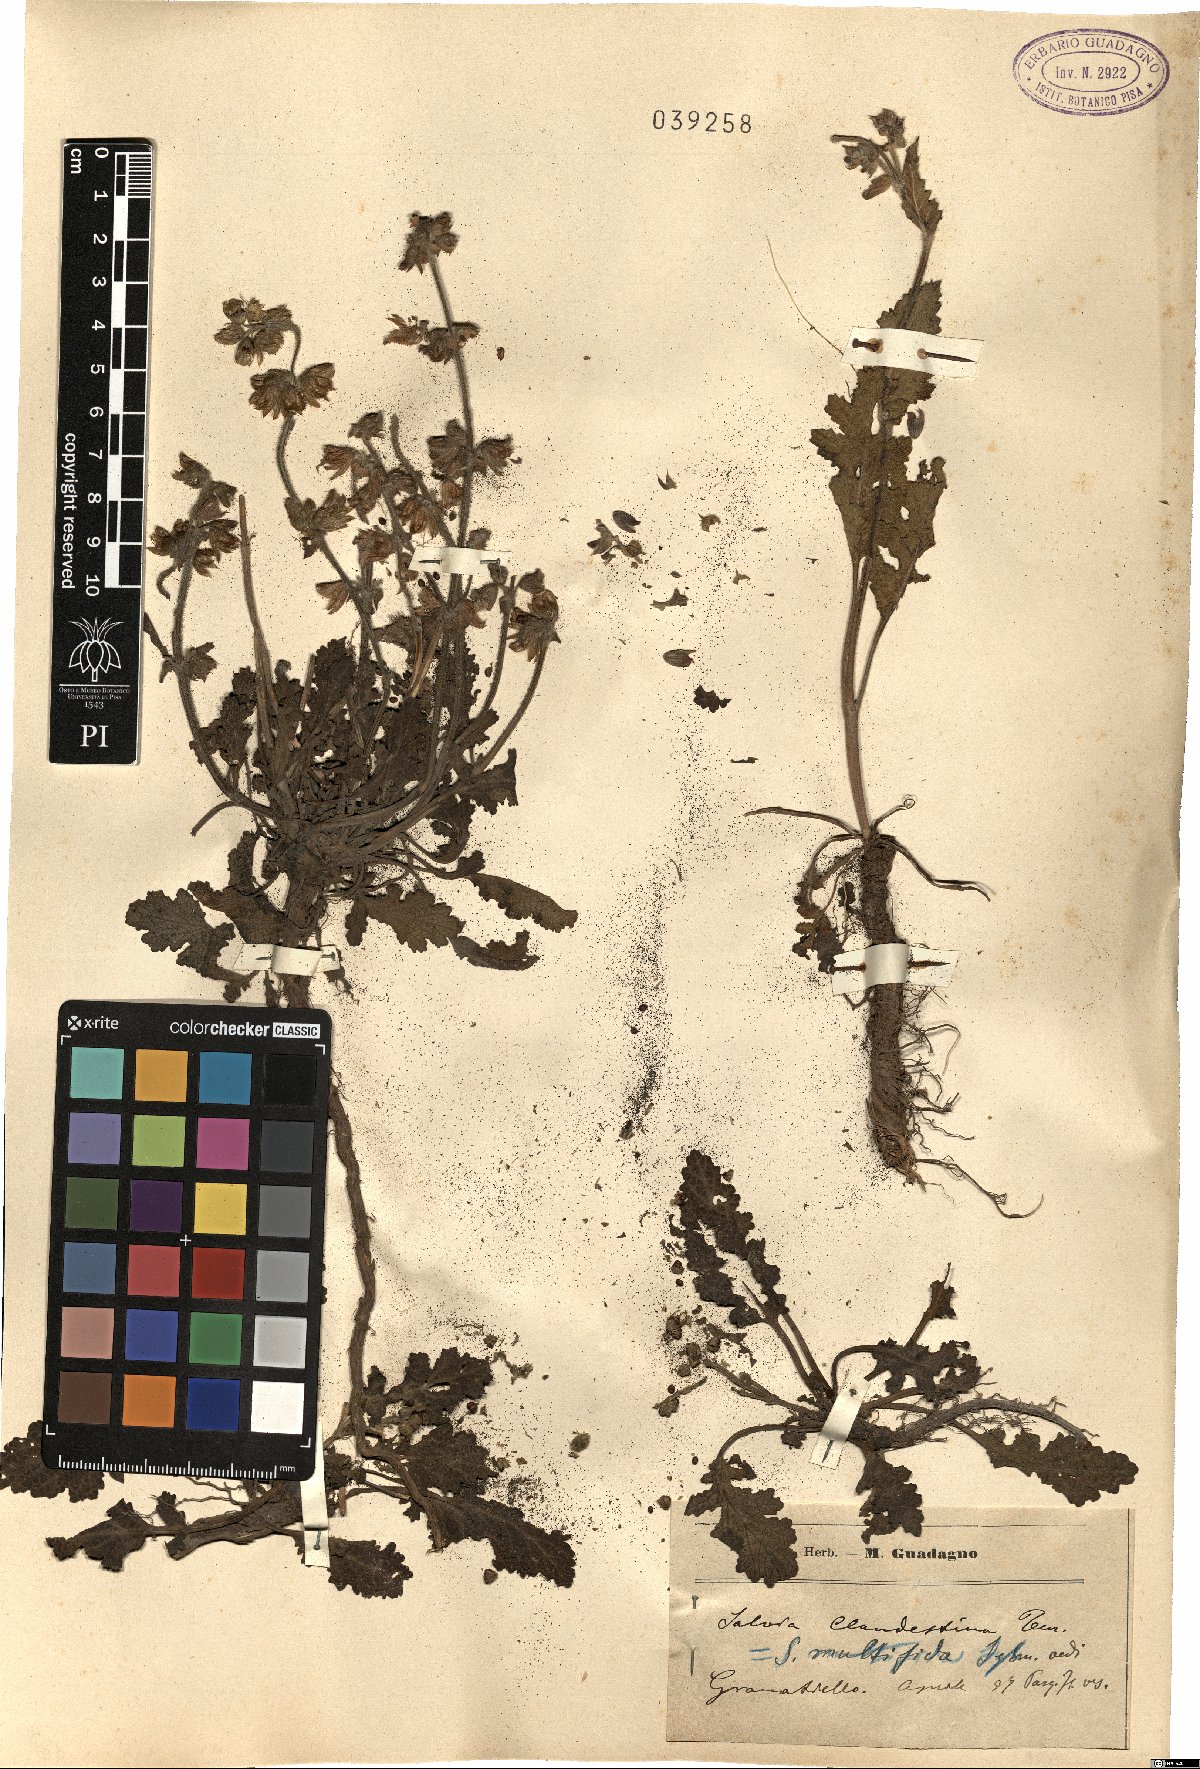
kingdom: Plantae
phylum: Tracheophyta
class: Magnoliopsida
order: Lamiales
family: Lamiaceae
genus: Salvia
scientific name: Salvia verbenaca
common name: Wild clary
